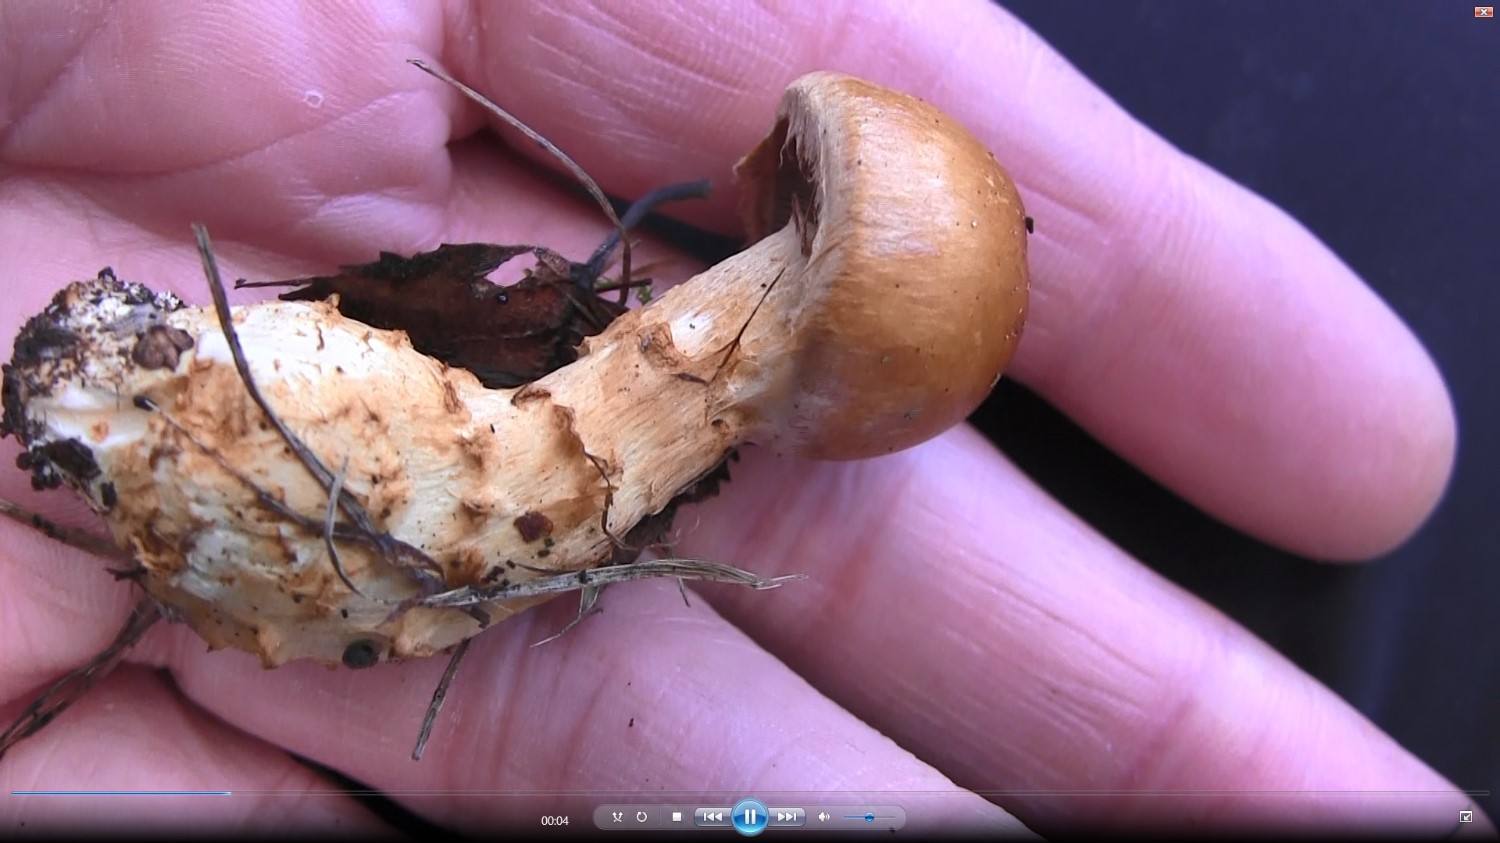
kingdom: Fungi
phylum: Basidiomycota
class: Agaricomycetes
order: Agaricales
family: Cortinariaceae
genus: Phlegmacium
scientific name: Phlegmacium triumphans
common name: gulbæltet slørhat
